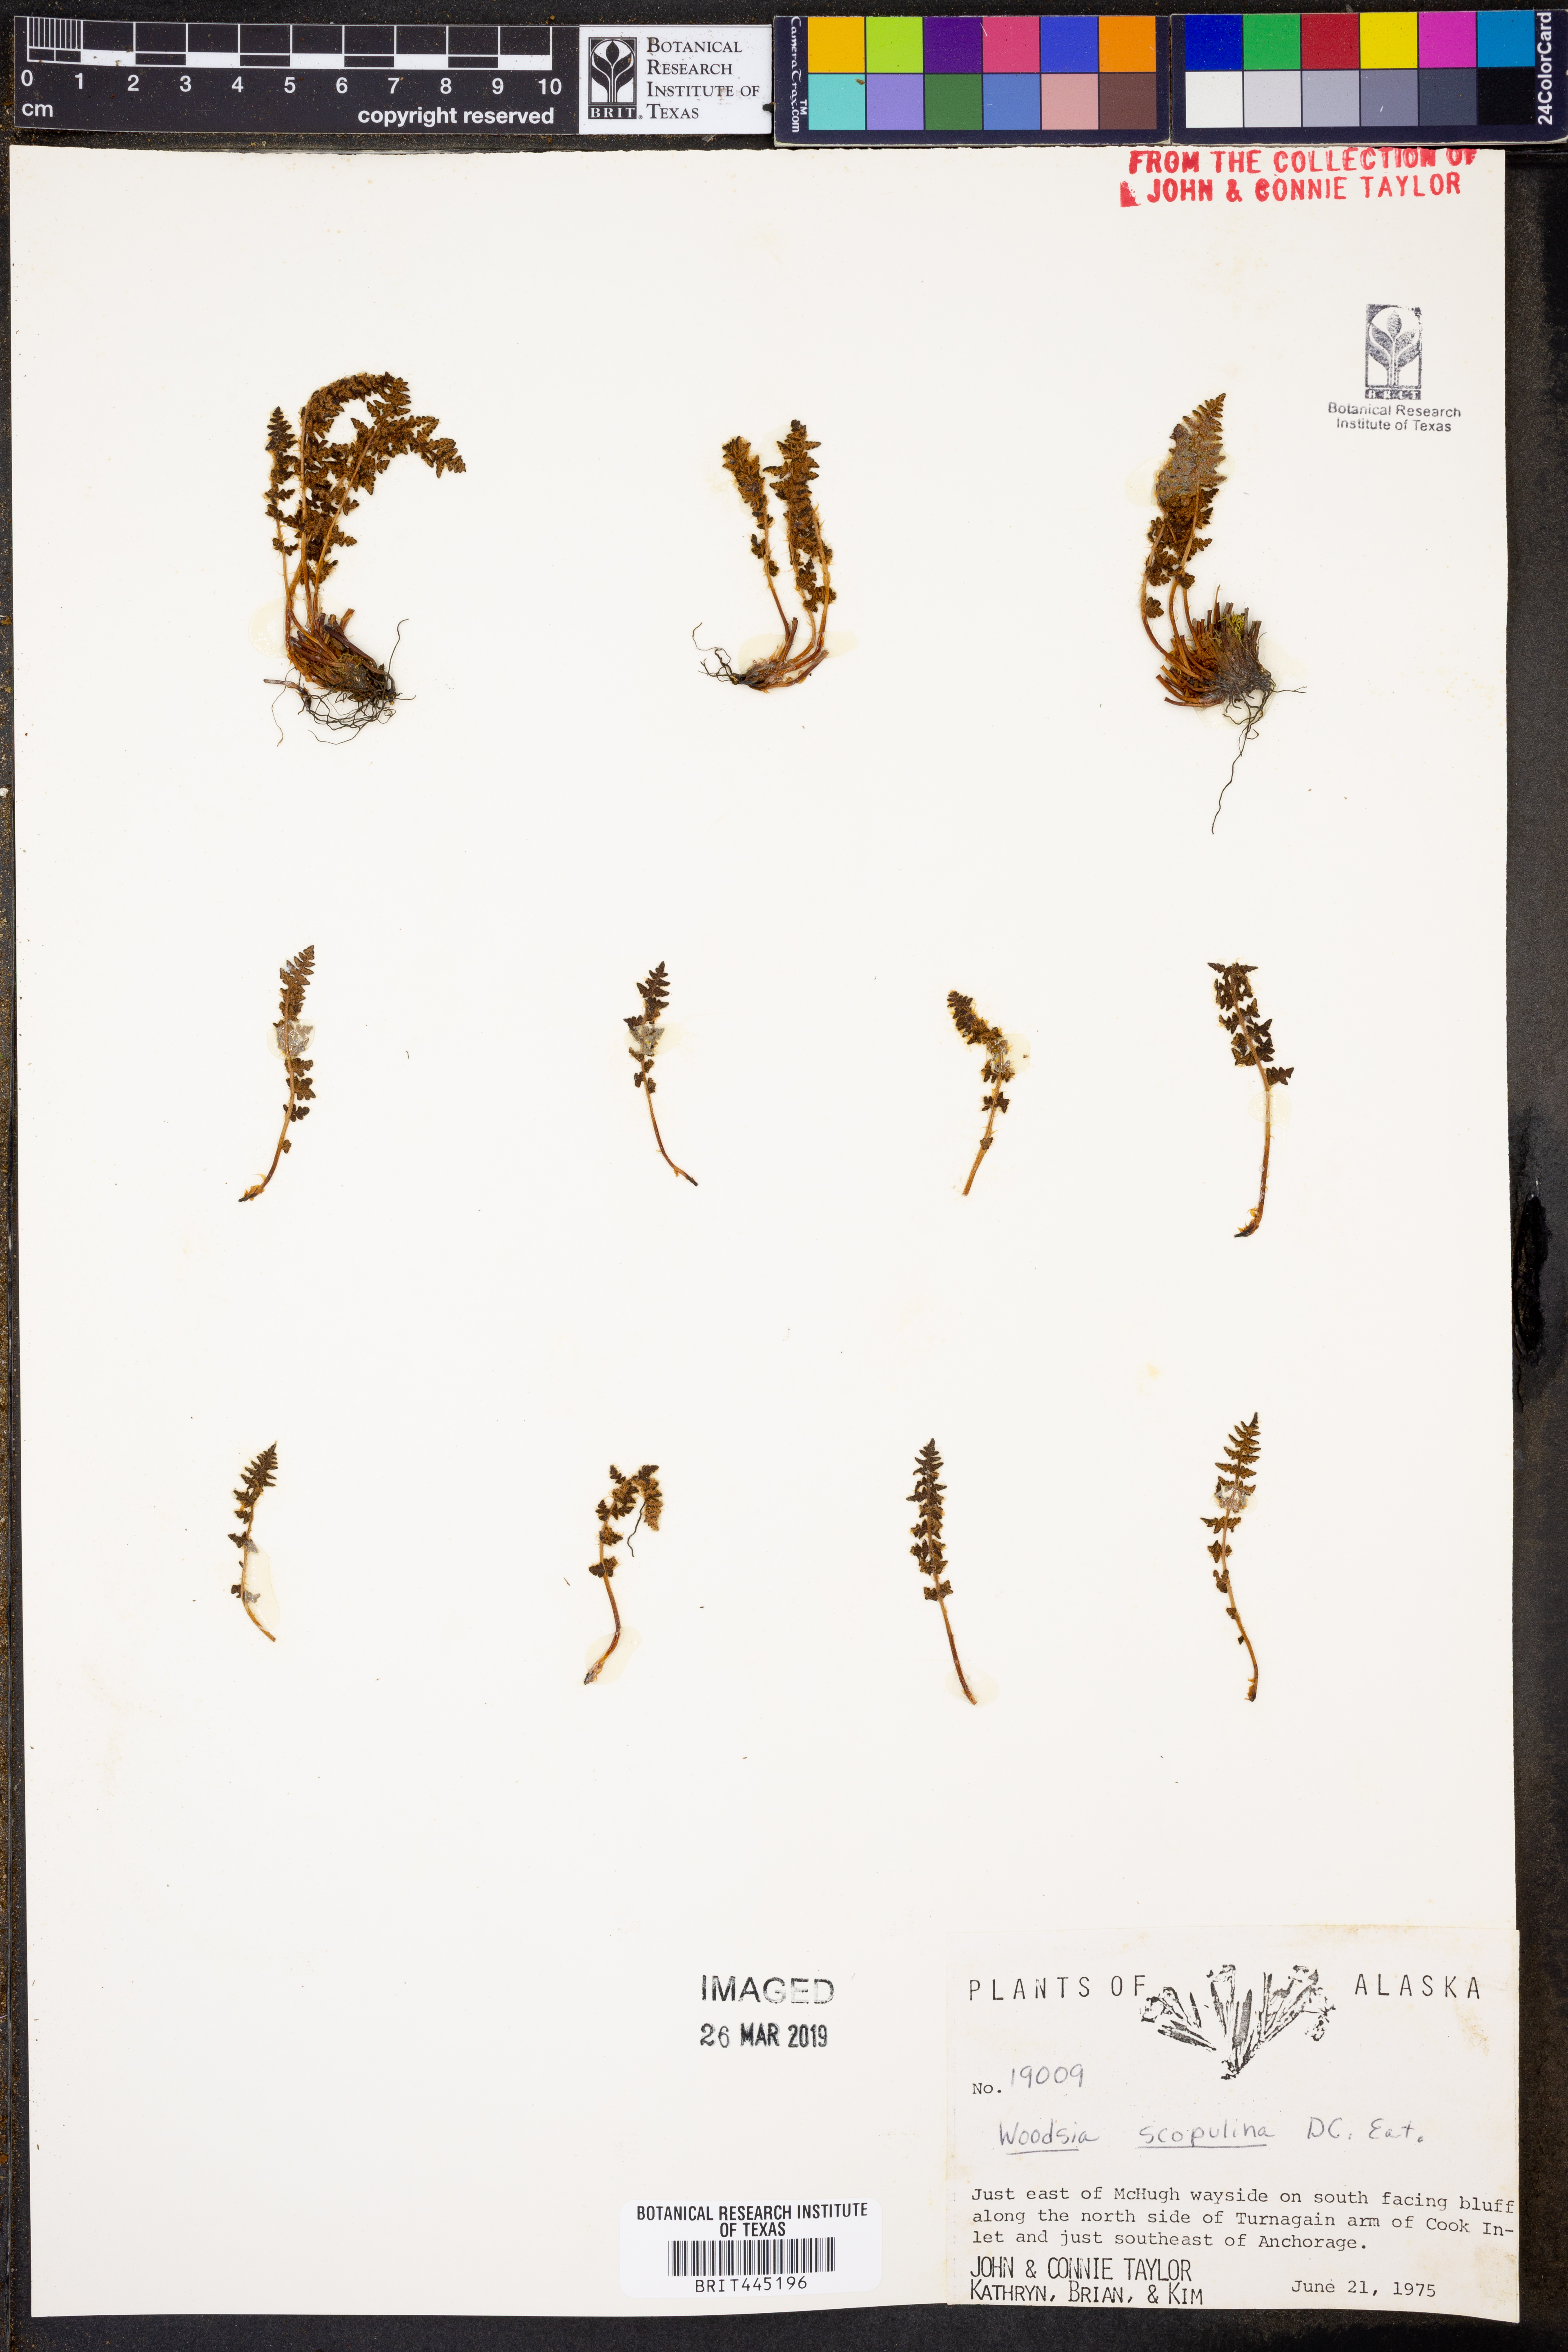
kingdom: Plantae
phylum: Tracheophyta
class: Polypodiopsida
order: Polypodiales
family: Woodsiaceae
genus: Physematium
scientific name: Physematium scopulinum
